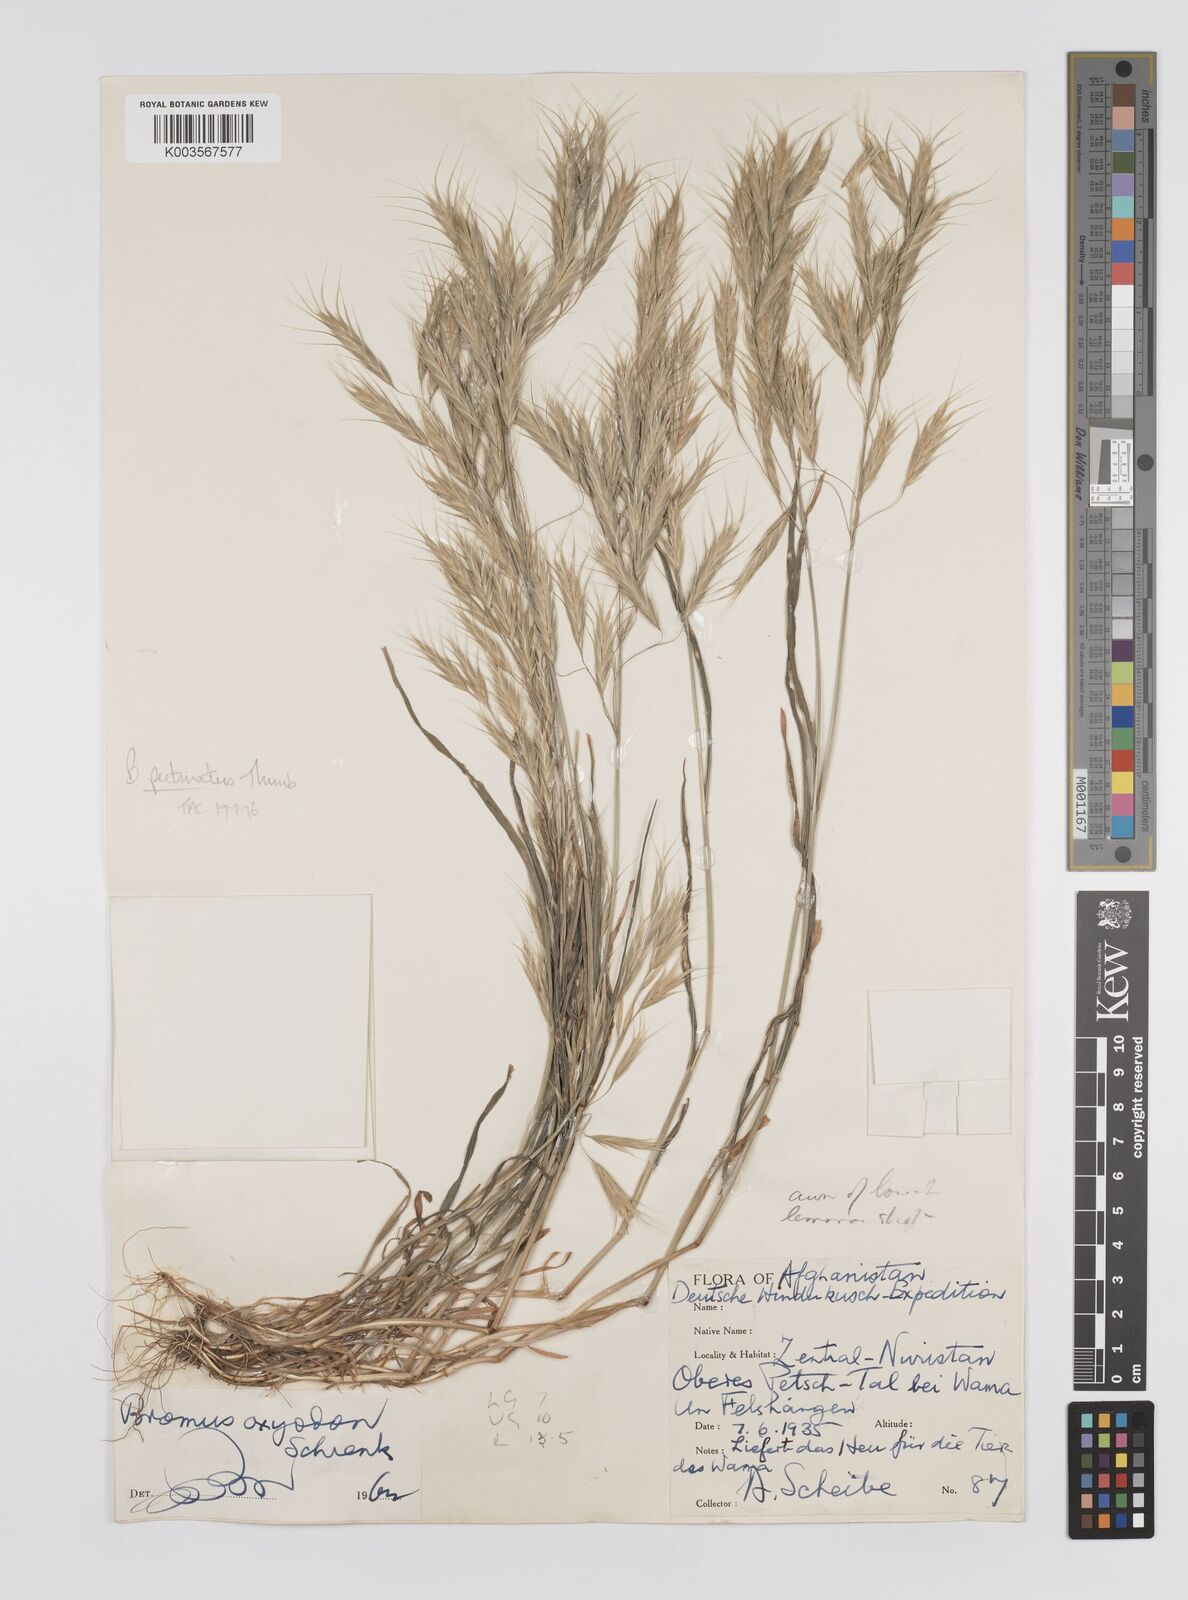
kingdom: Plantae
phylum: Tracheophyta
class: Liliopsida
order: Poales
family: Poaceae
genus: Bromus
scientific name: Bromus pectinatus
